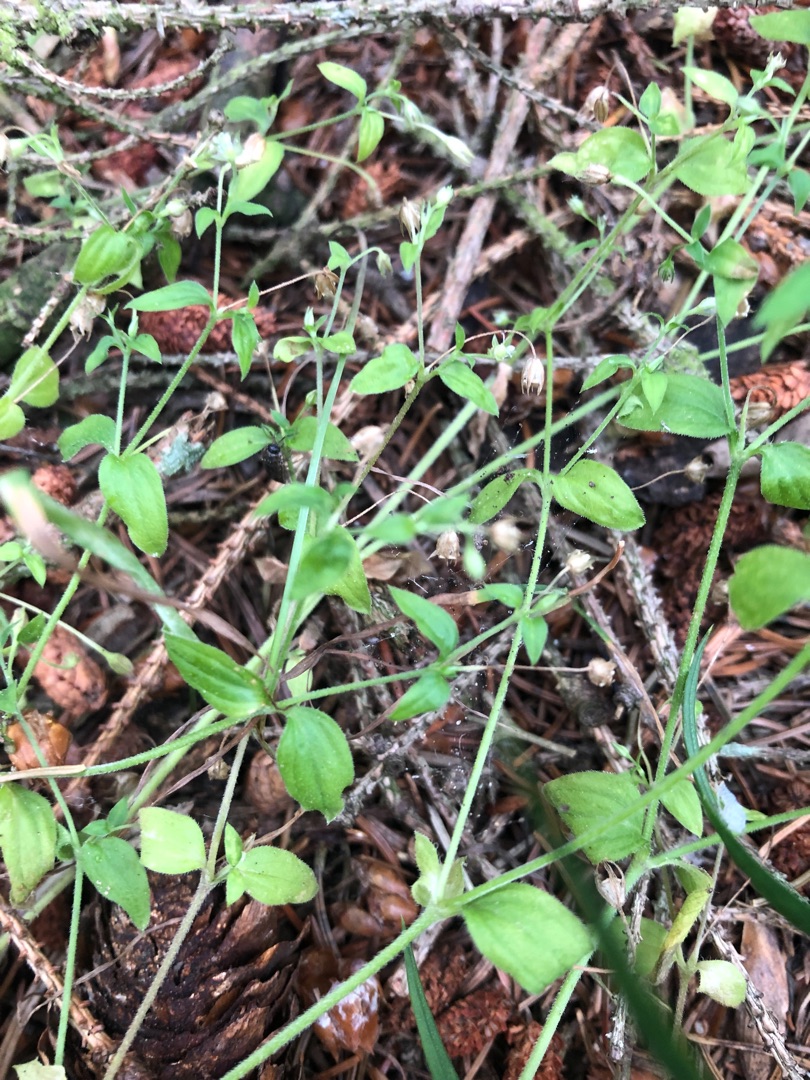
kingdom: Plantae
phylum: Tracheophyta
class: Magnoliopsida
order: Caryophyllales
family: Caryophyllaceae
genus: Moehringia
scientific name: Moehringia trinervia
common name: Skovarve
